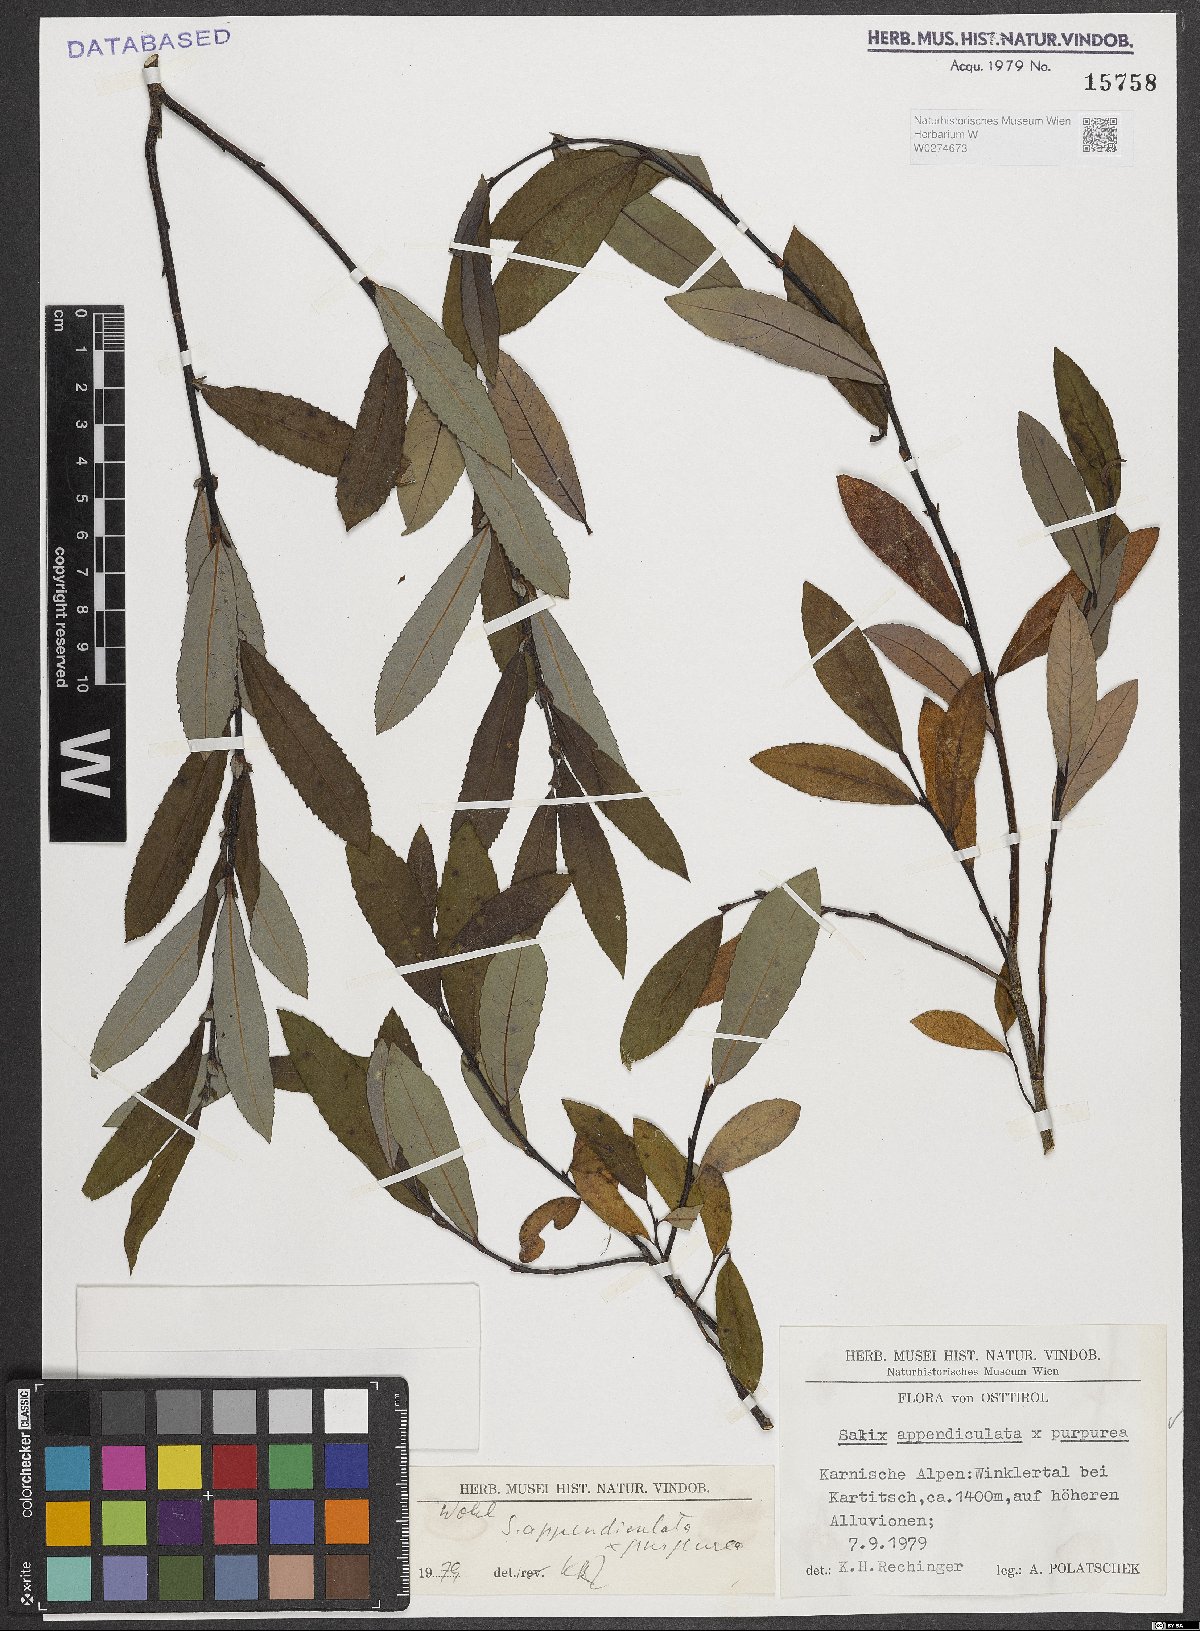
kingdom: Plantae
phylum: Tracheophyta
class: Magnoliopsida
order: Malpighiales
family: Salicaceae
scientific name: Salicaceae
